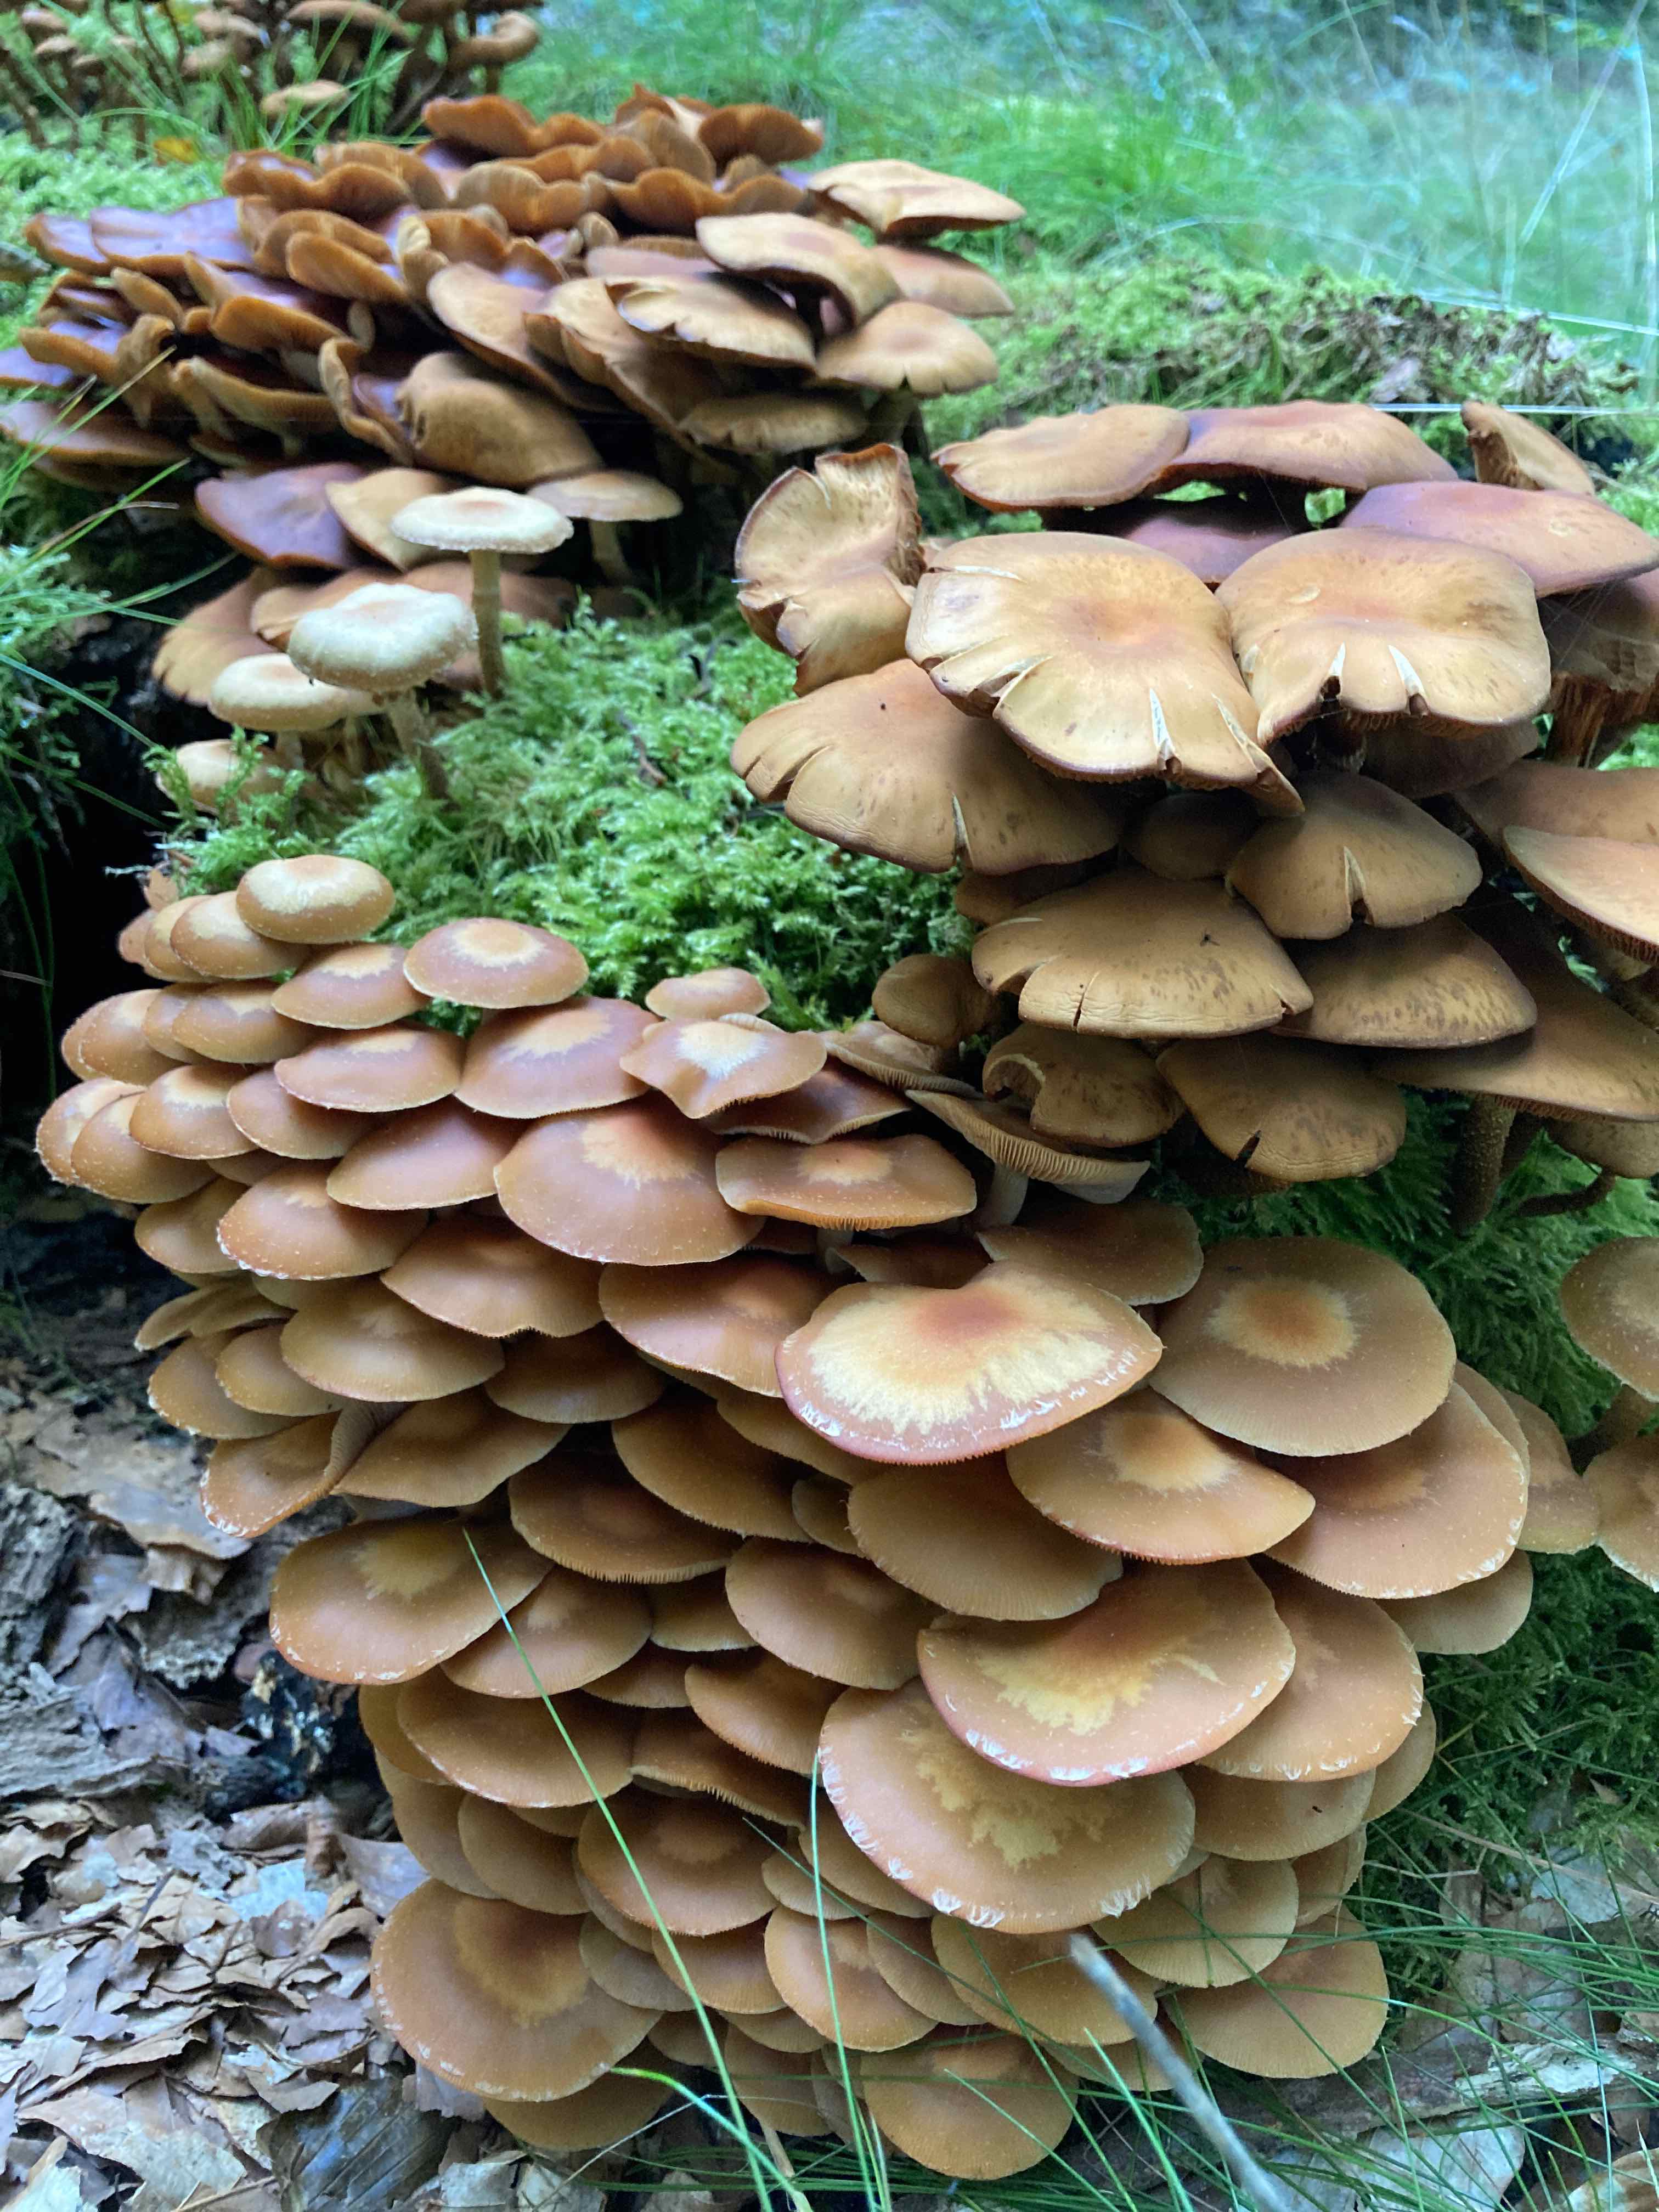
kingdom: Fungi
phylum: Basidiomycota
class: Agaricomycetes
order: Agaricales
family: Strophariaceae
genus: Kuehneromyces
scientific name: Kuehneromyces mutabilis
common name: foranderlig skælhat
